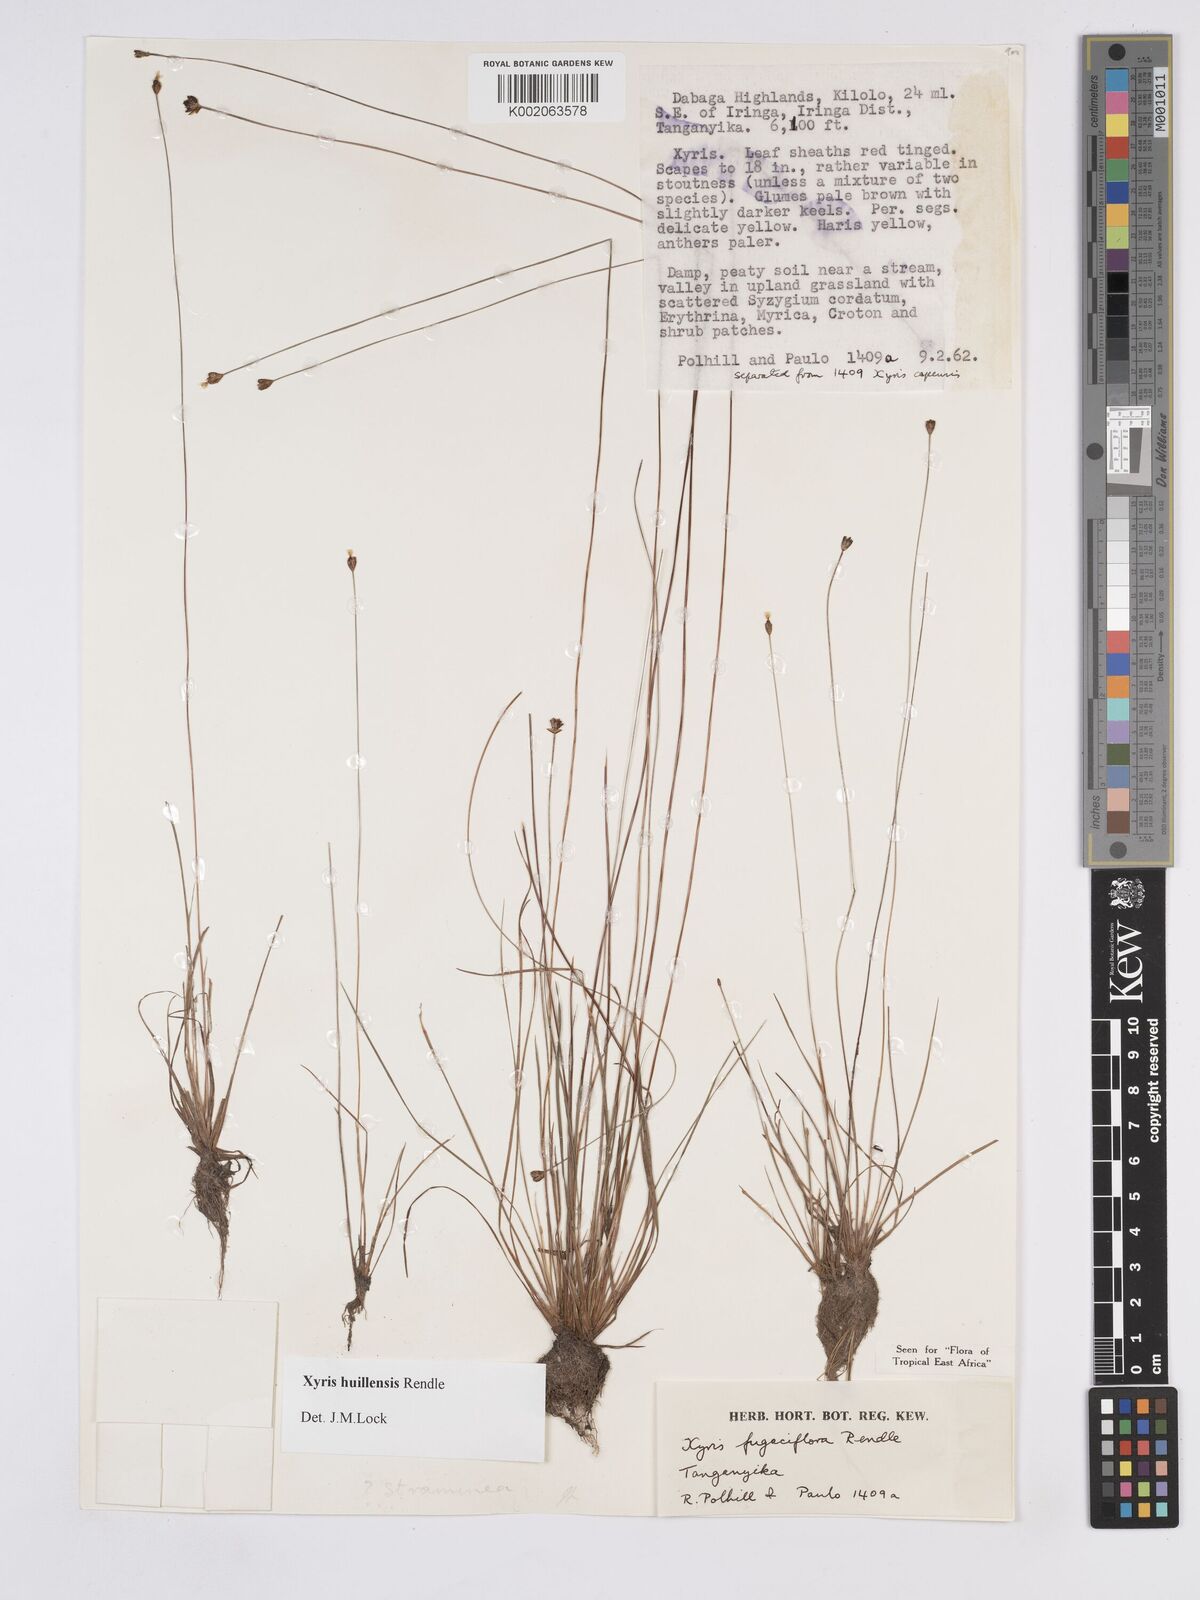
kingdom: Plantae
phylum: Tracheophyta
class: Liliopsida
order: Poales
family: Xyridaceae
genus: Xyris
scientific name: Xyris huillensis
